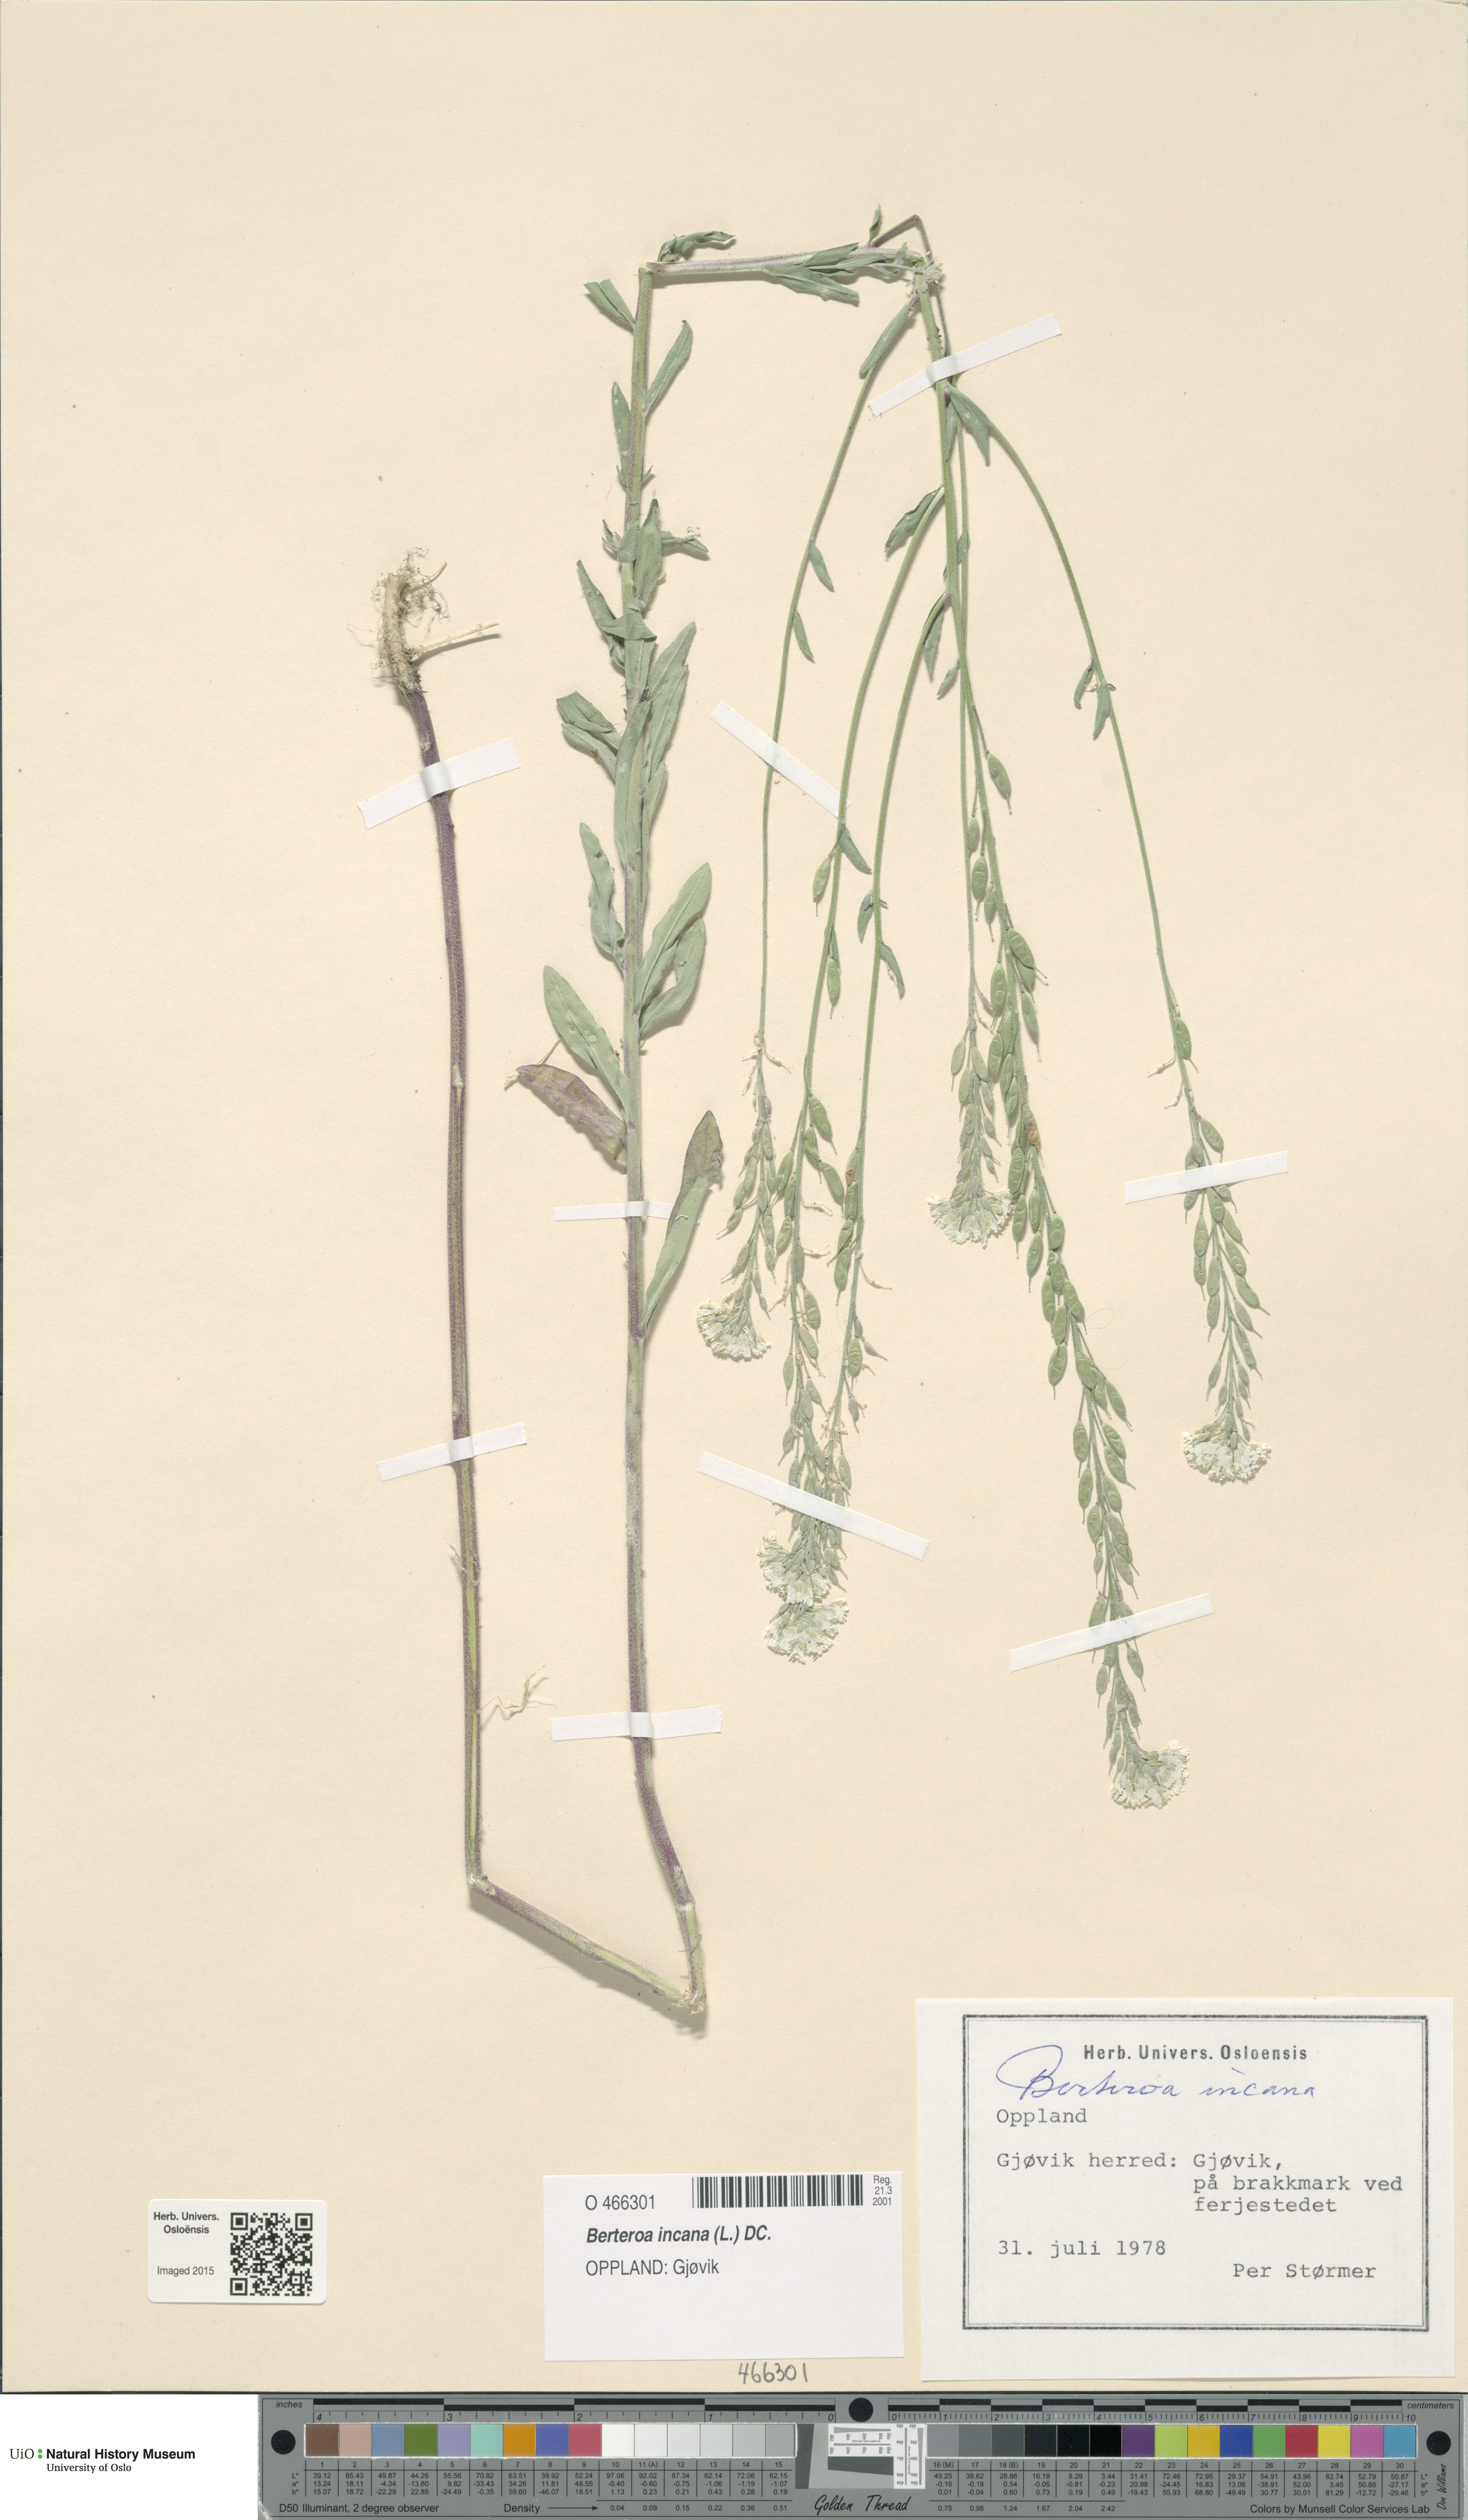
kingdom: Plantae
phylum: Tracheophyta
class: Magnoliopsida
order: Brassicales
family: Brassicaceae
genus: Berteroa
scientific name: Berteroa incana
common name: Hoary alison
